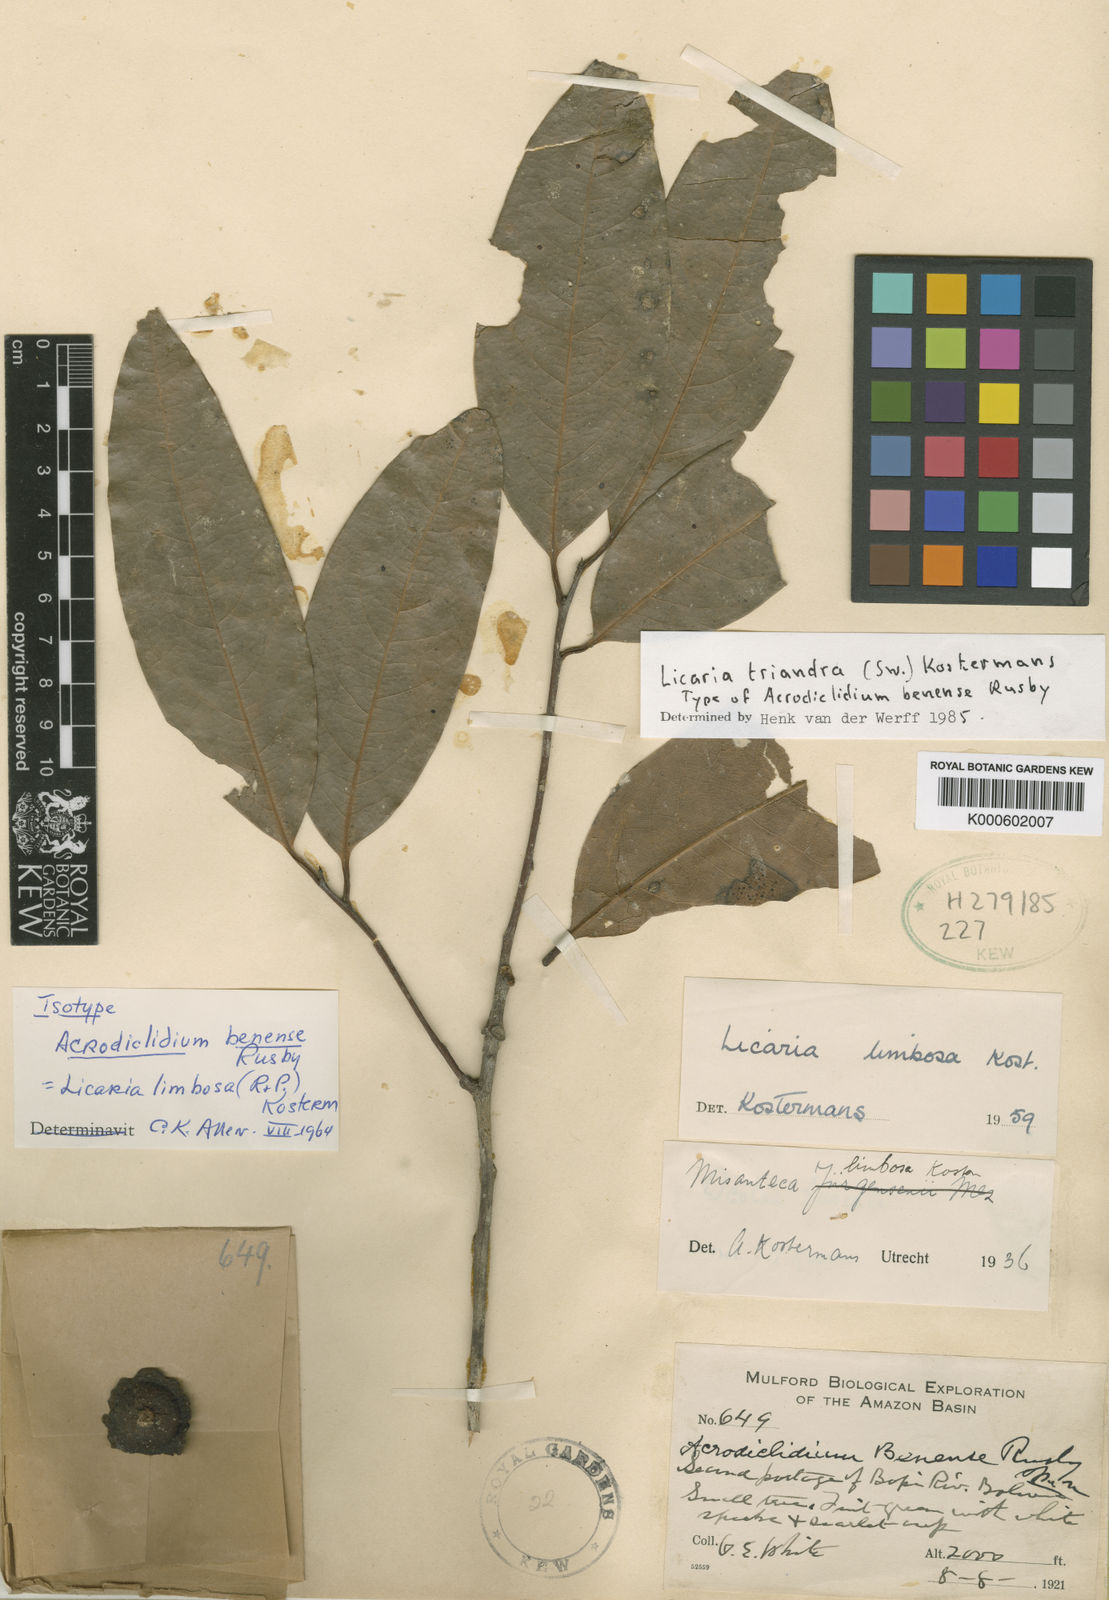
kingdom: Plantae
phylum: Tracheophyta
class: Magnoliopsida
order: Laurales
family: Lauraceae
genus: Licaria
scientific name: Licaria triandra
